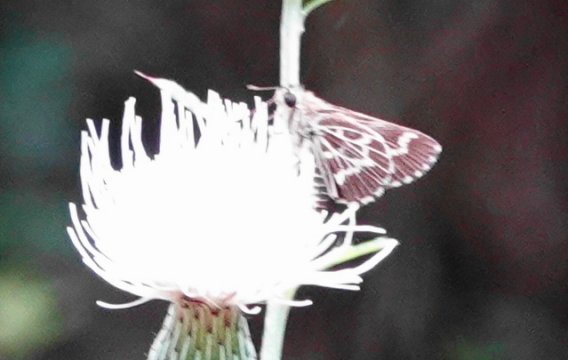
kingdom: Animalia
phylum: Arthropoda
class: Insecta
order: Lepidoptera
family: Hesperiidae
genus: Mastor
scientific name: Mastor aesculapius
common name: Lace-winged Roadside-Skipper
